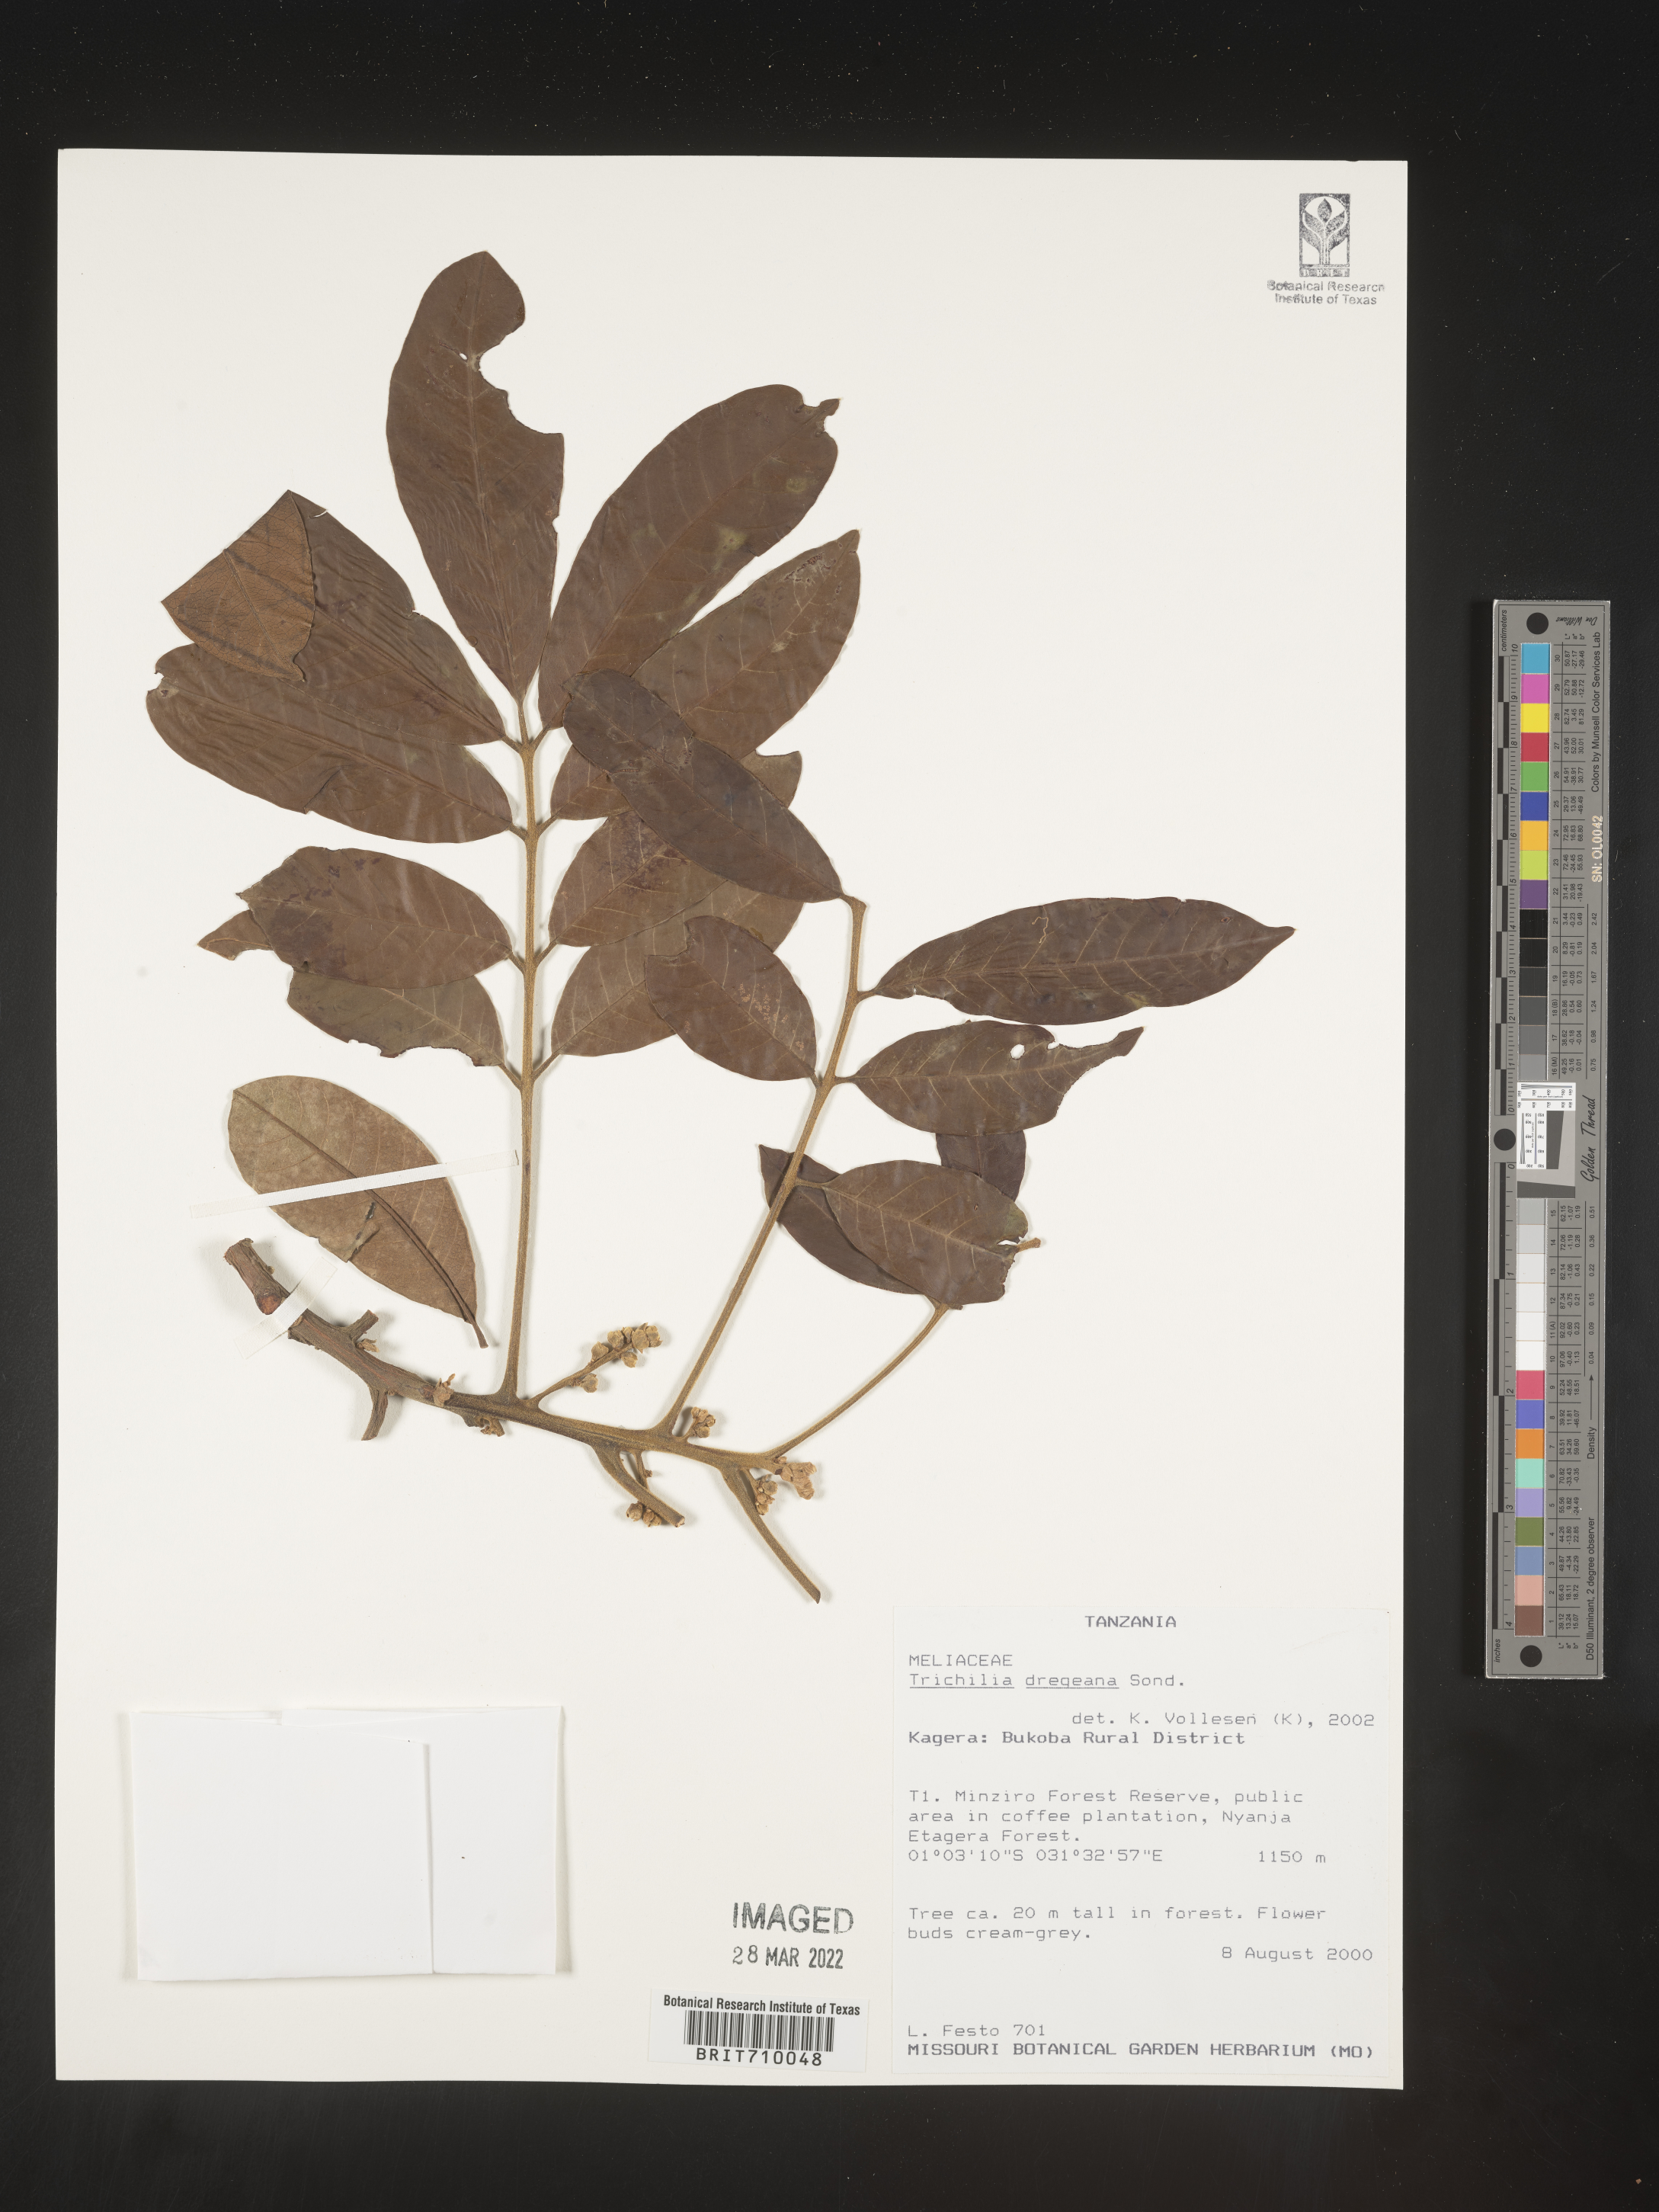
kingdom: Plantae
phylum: Tracheophyta
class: Magnoliopsida
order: Sapindales
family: Meliaceae
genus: Trichilia
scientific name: Trichilia
